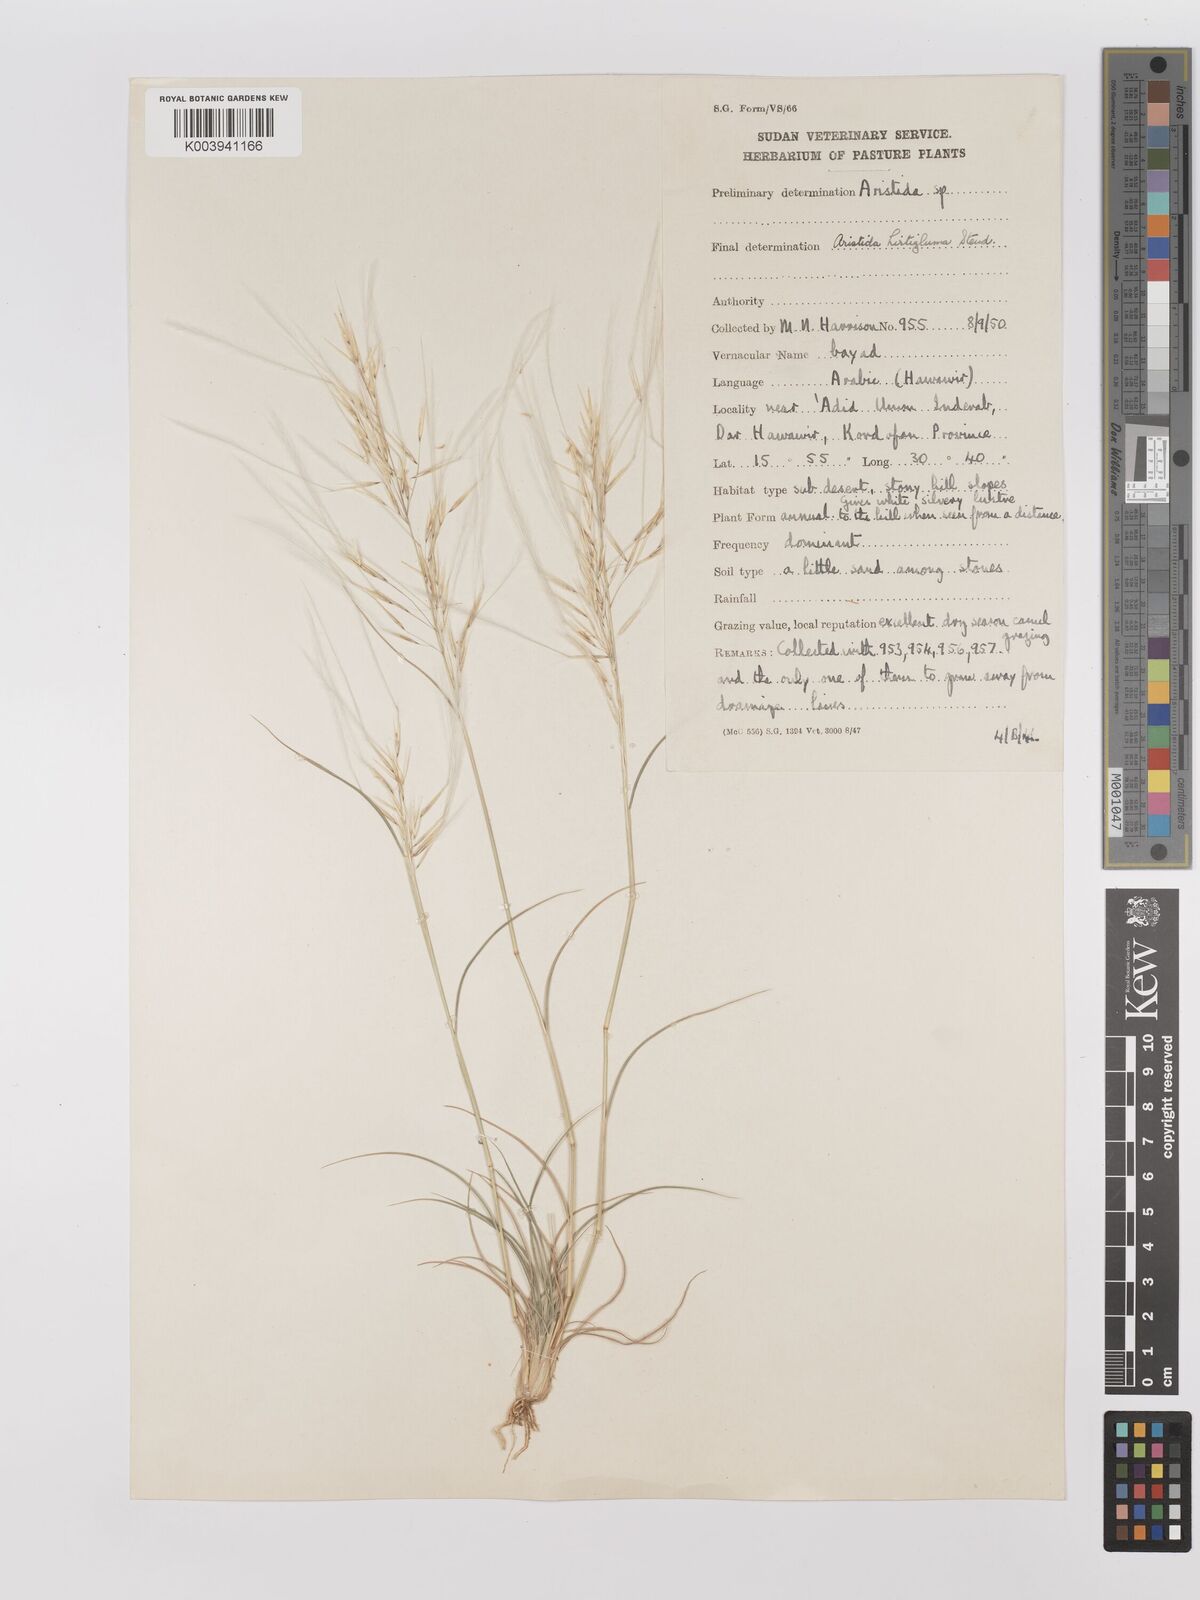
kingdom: Plantae
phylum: Tracheophyta
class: Liliopsida
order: Poales
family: Poaceae
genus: Stipagrostis
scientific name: Stipagrostis hirtigluma
